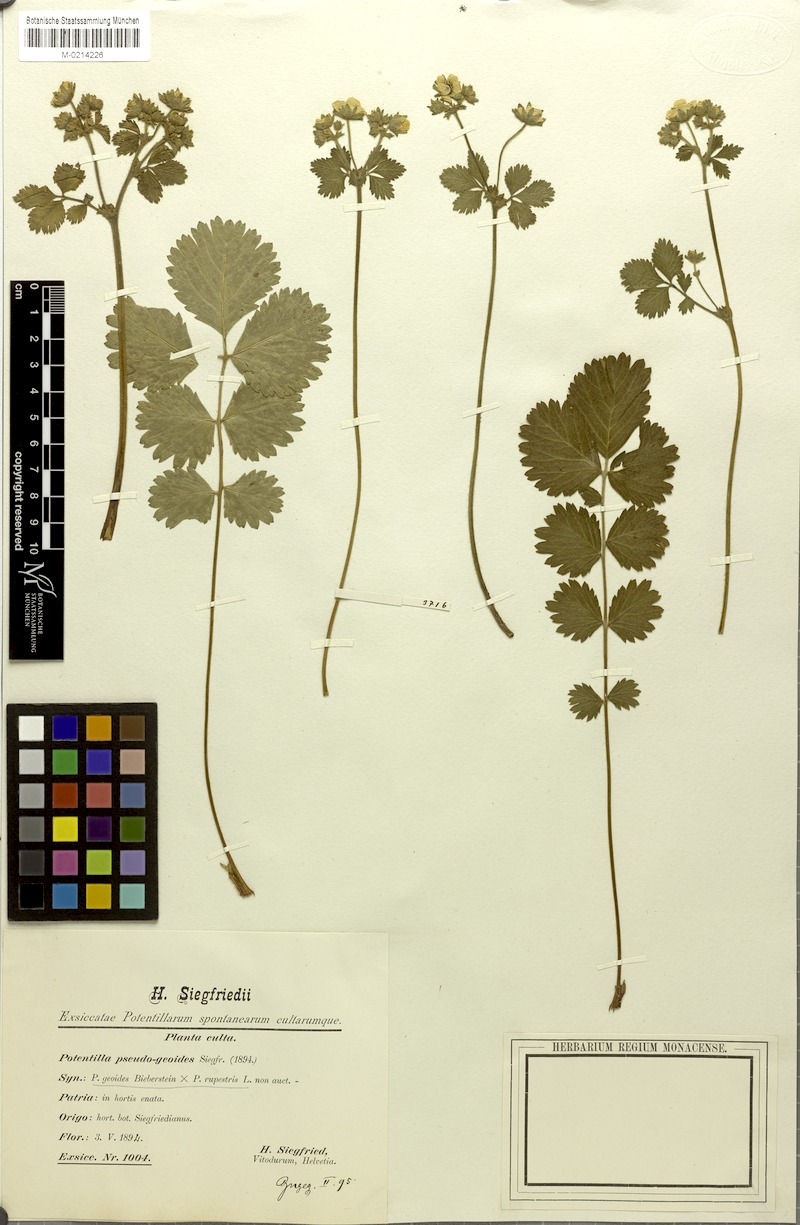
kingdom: Plantae
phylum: Tracheophyta
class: Magnoliopsida
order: Rosales
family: Rosaceae
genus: Drymocallis
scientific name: Drymocallis geoides
